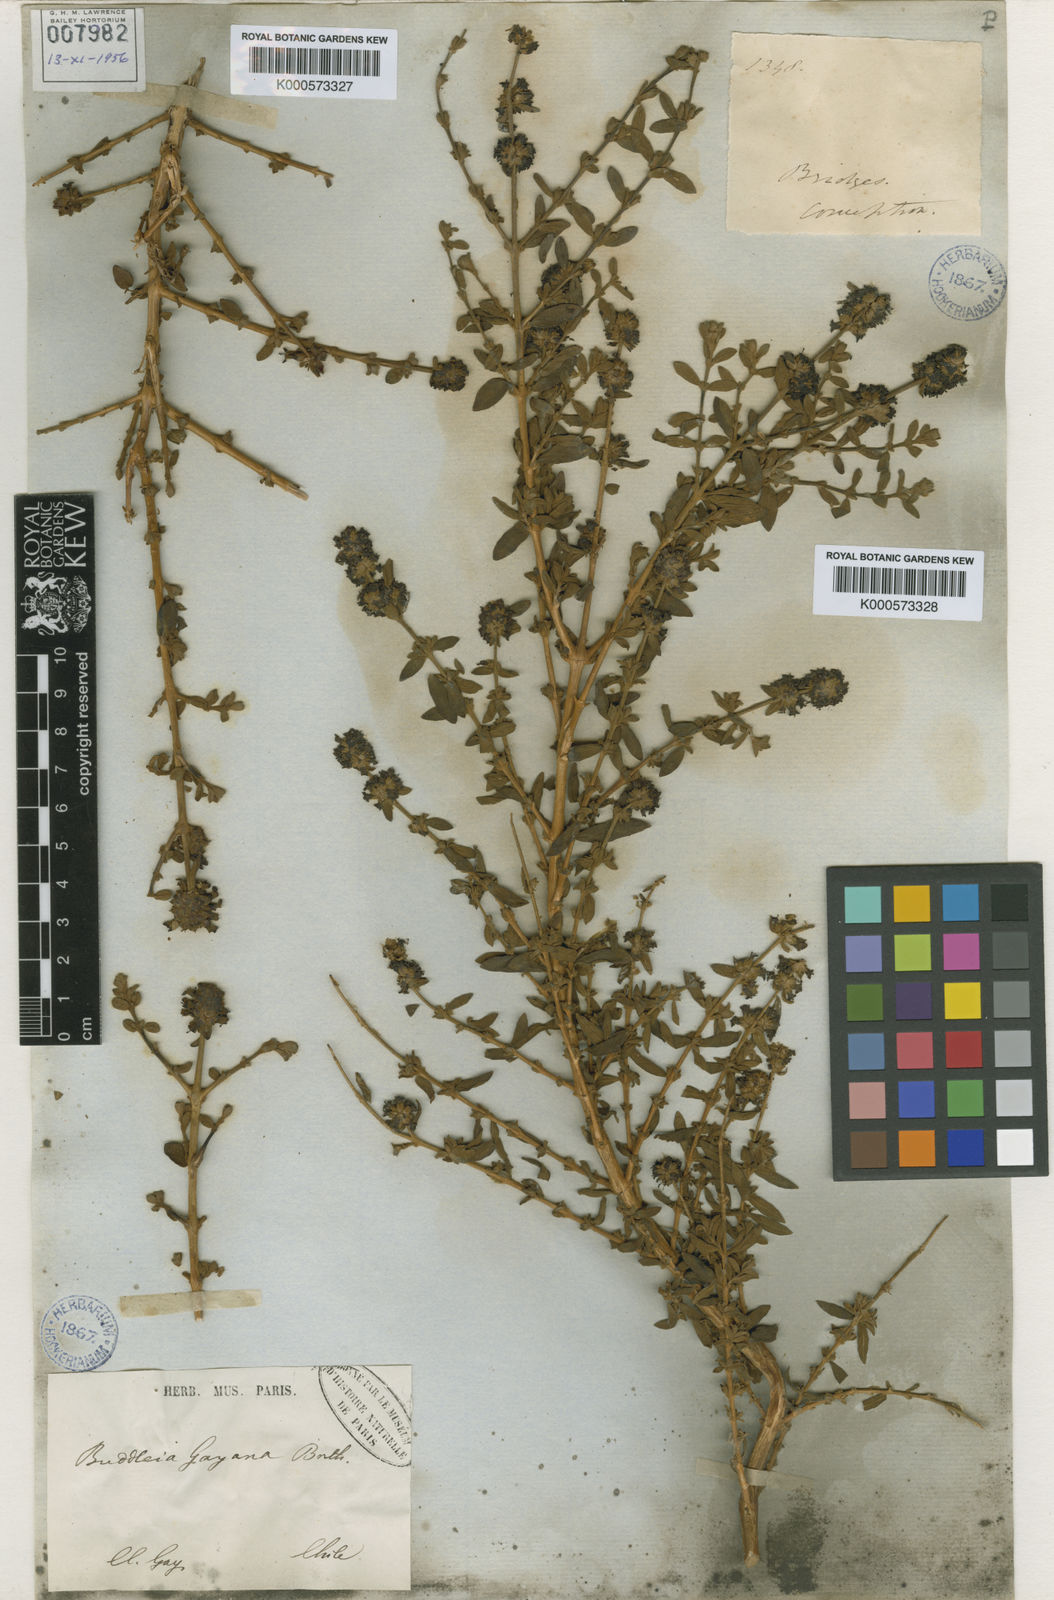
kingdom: Plantae
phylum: Tracheophyta
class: Magnoliopsida
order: Lamiales
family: Scrophulariaceae
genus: Buddleja
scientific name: Buddleja suaveolens
